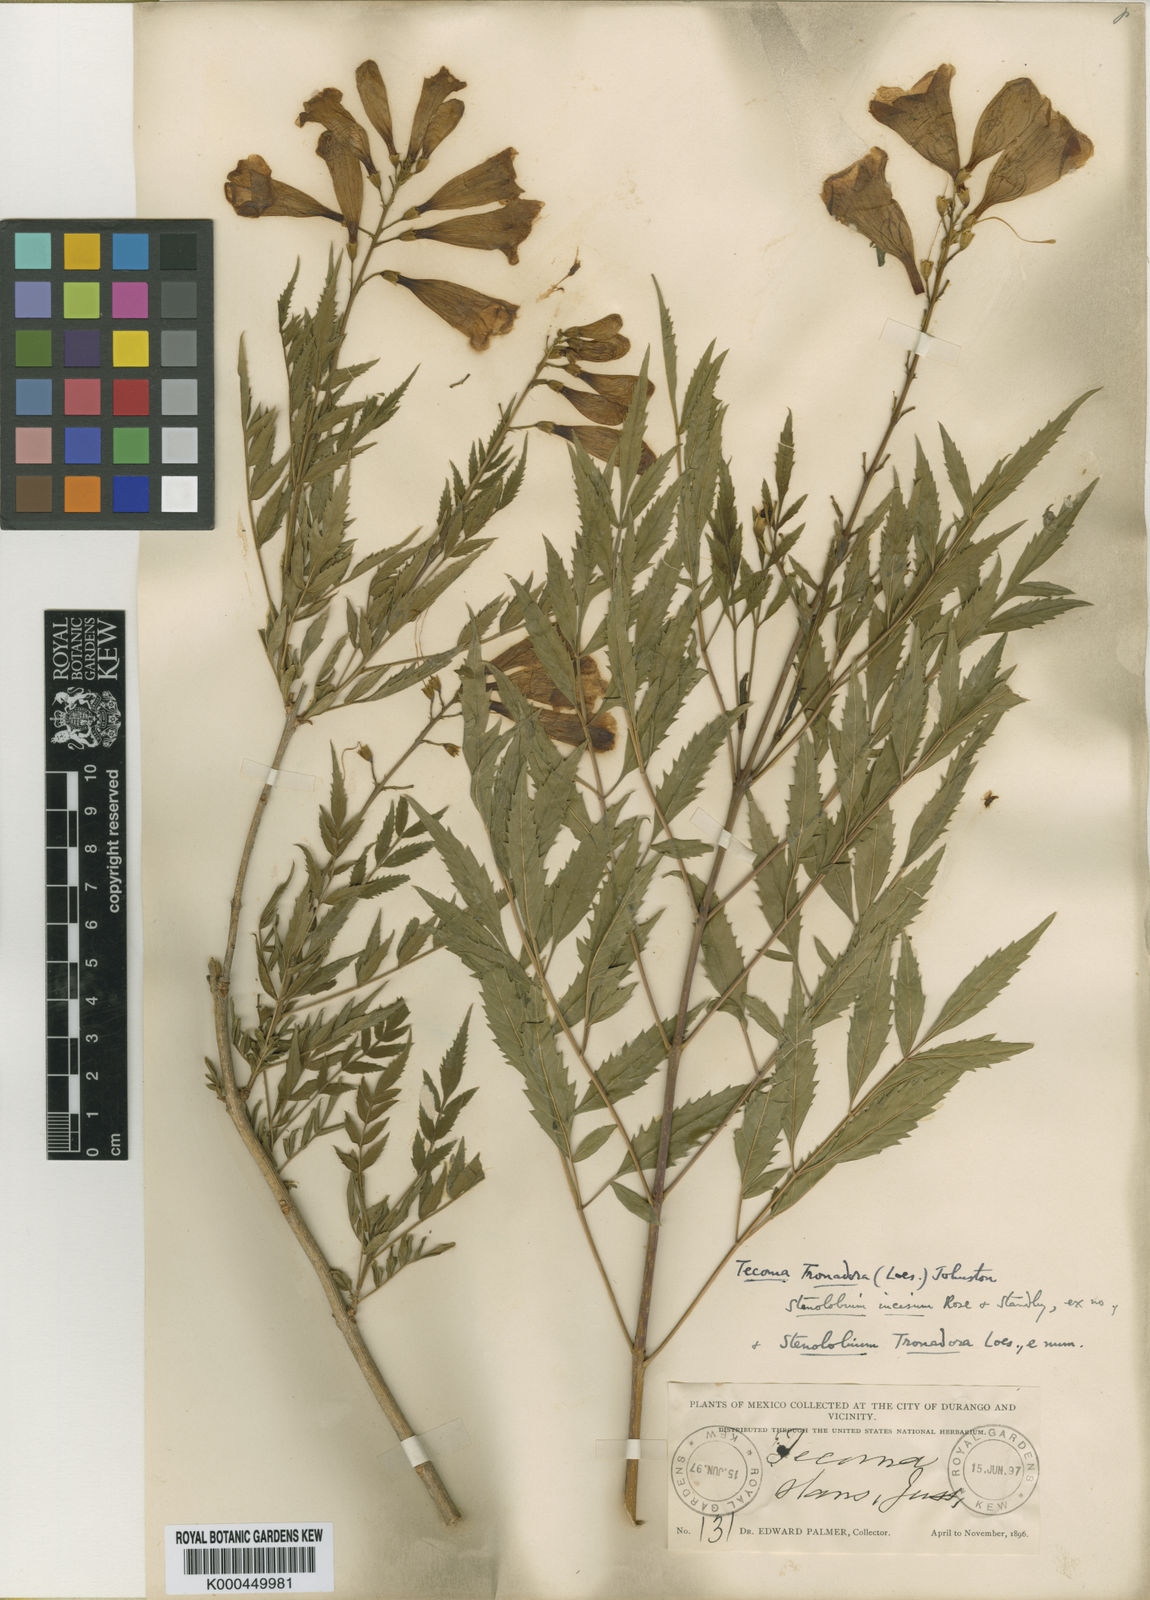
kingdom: Plantae
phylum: Tracheophyta
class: Magnoliopsida
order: Lamiales
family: Bignoniaceae
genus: Tecoma
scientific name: Tecoma stans
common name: Yellow trumpetbush
